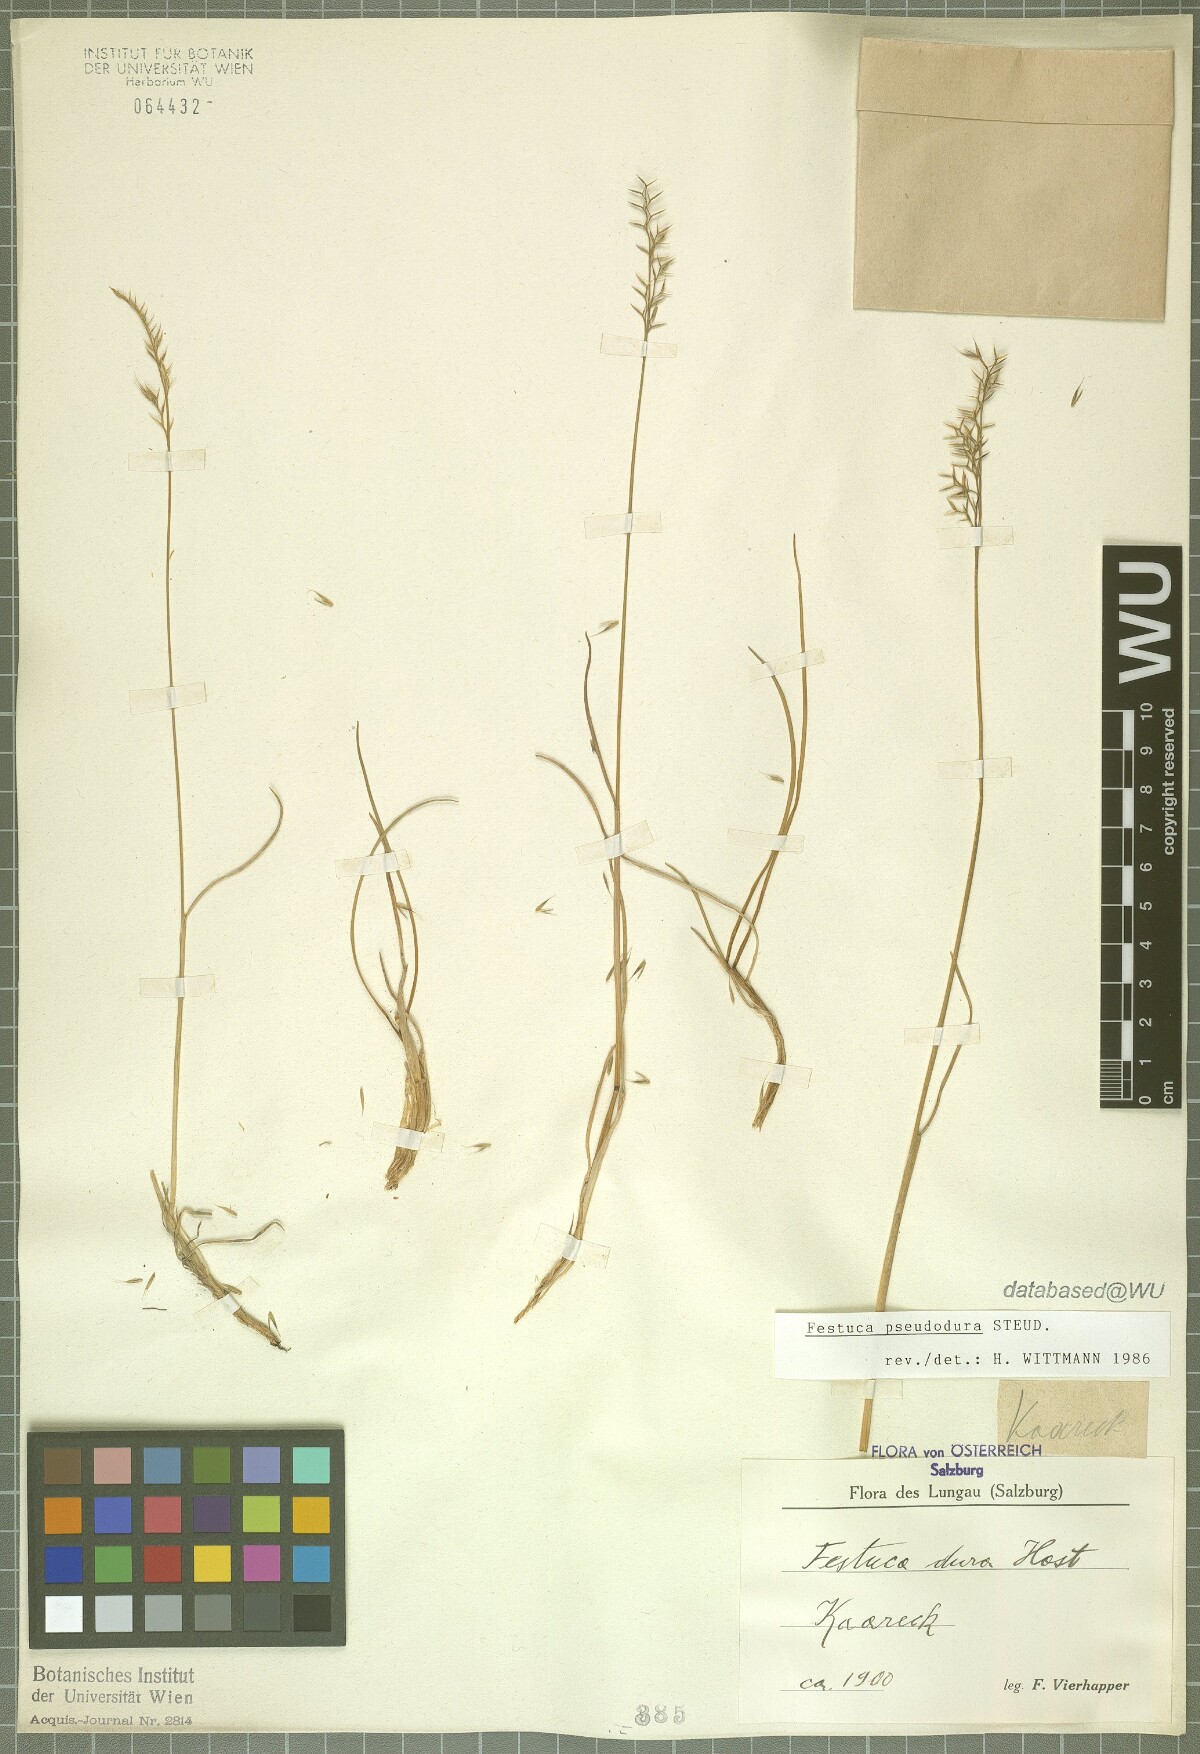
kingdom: Plantae
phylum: Tracheophyta
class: Liliopsida
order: Poales
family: Poaceae
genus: Festuca
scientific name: Festuca pseudodura
